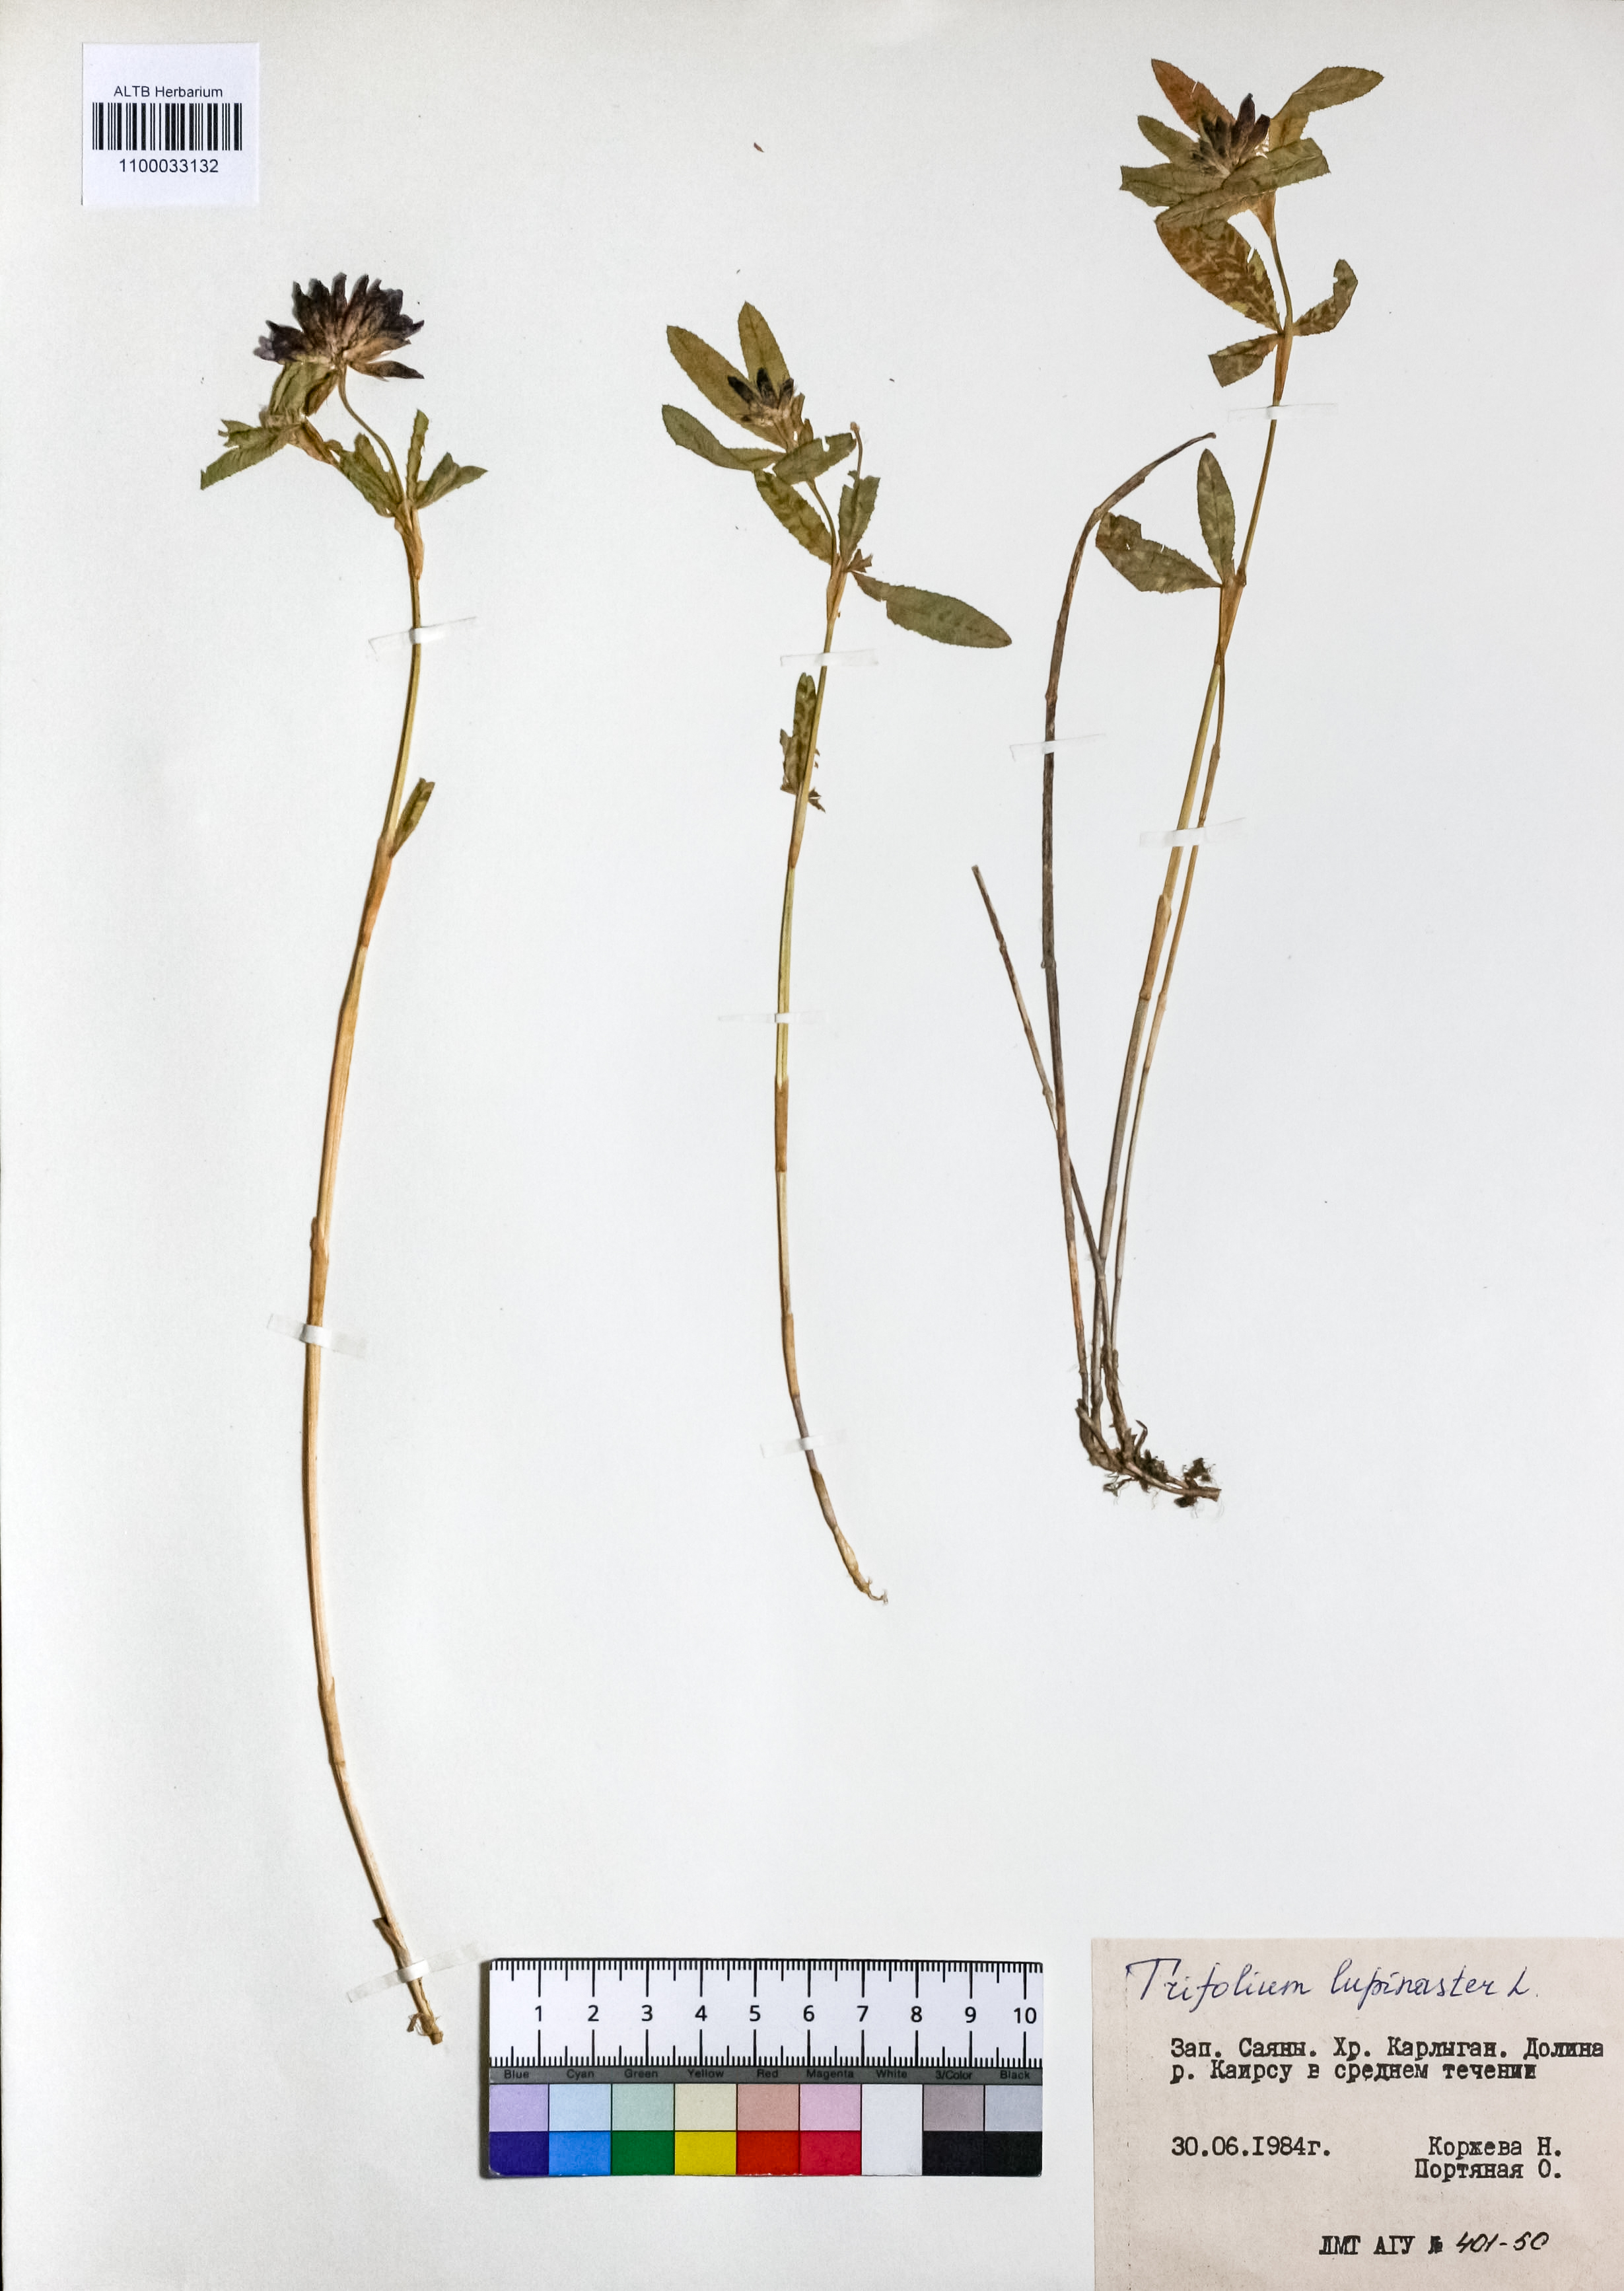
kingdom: Plantae
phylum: Tracheophyta
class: Magnoliopsida
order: Fabales
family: Fabaceae
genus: Trifolium
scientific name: Trifolium lupinaster
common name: Lupine clover
